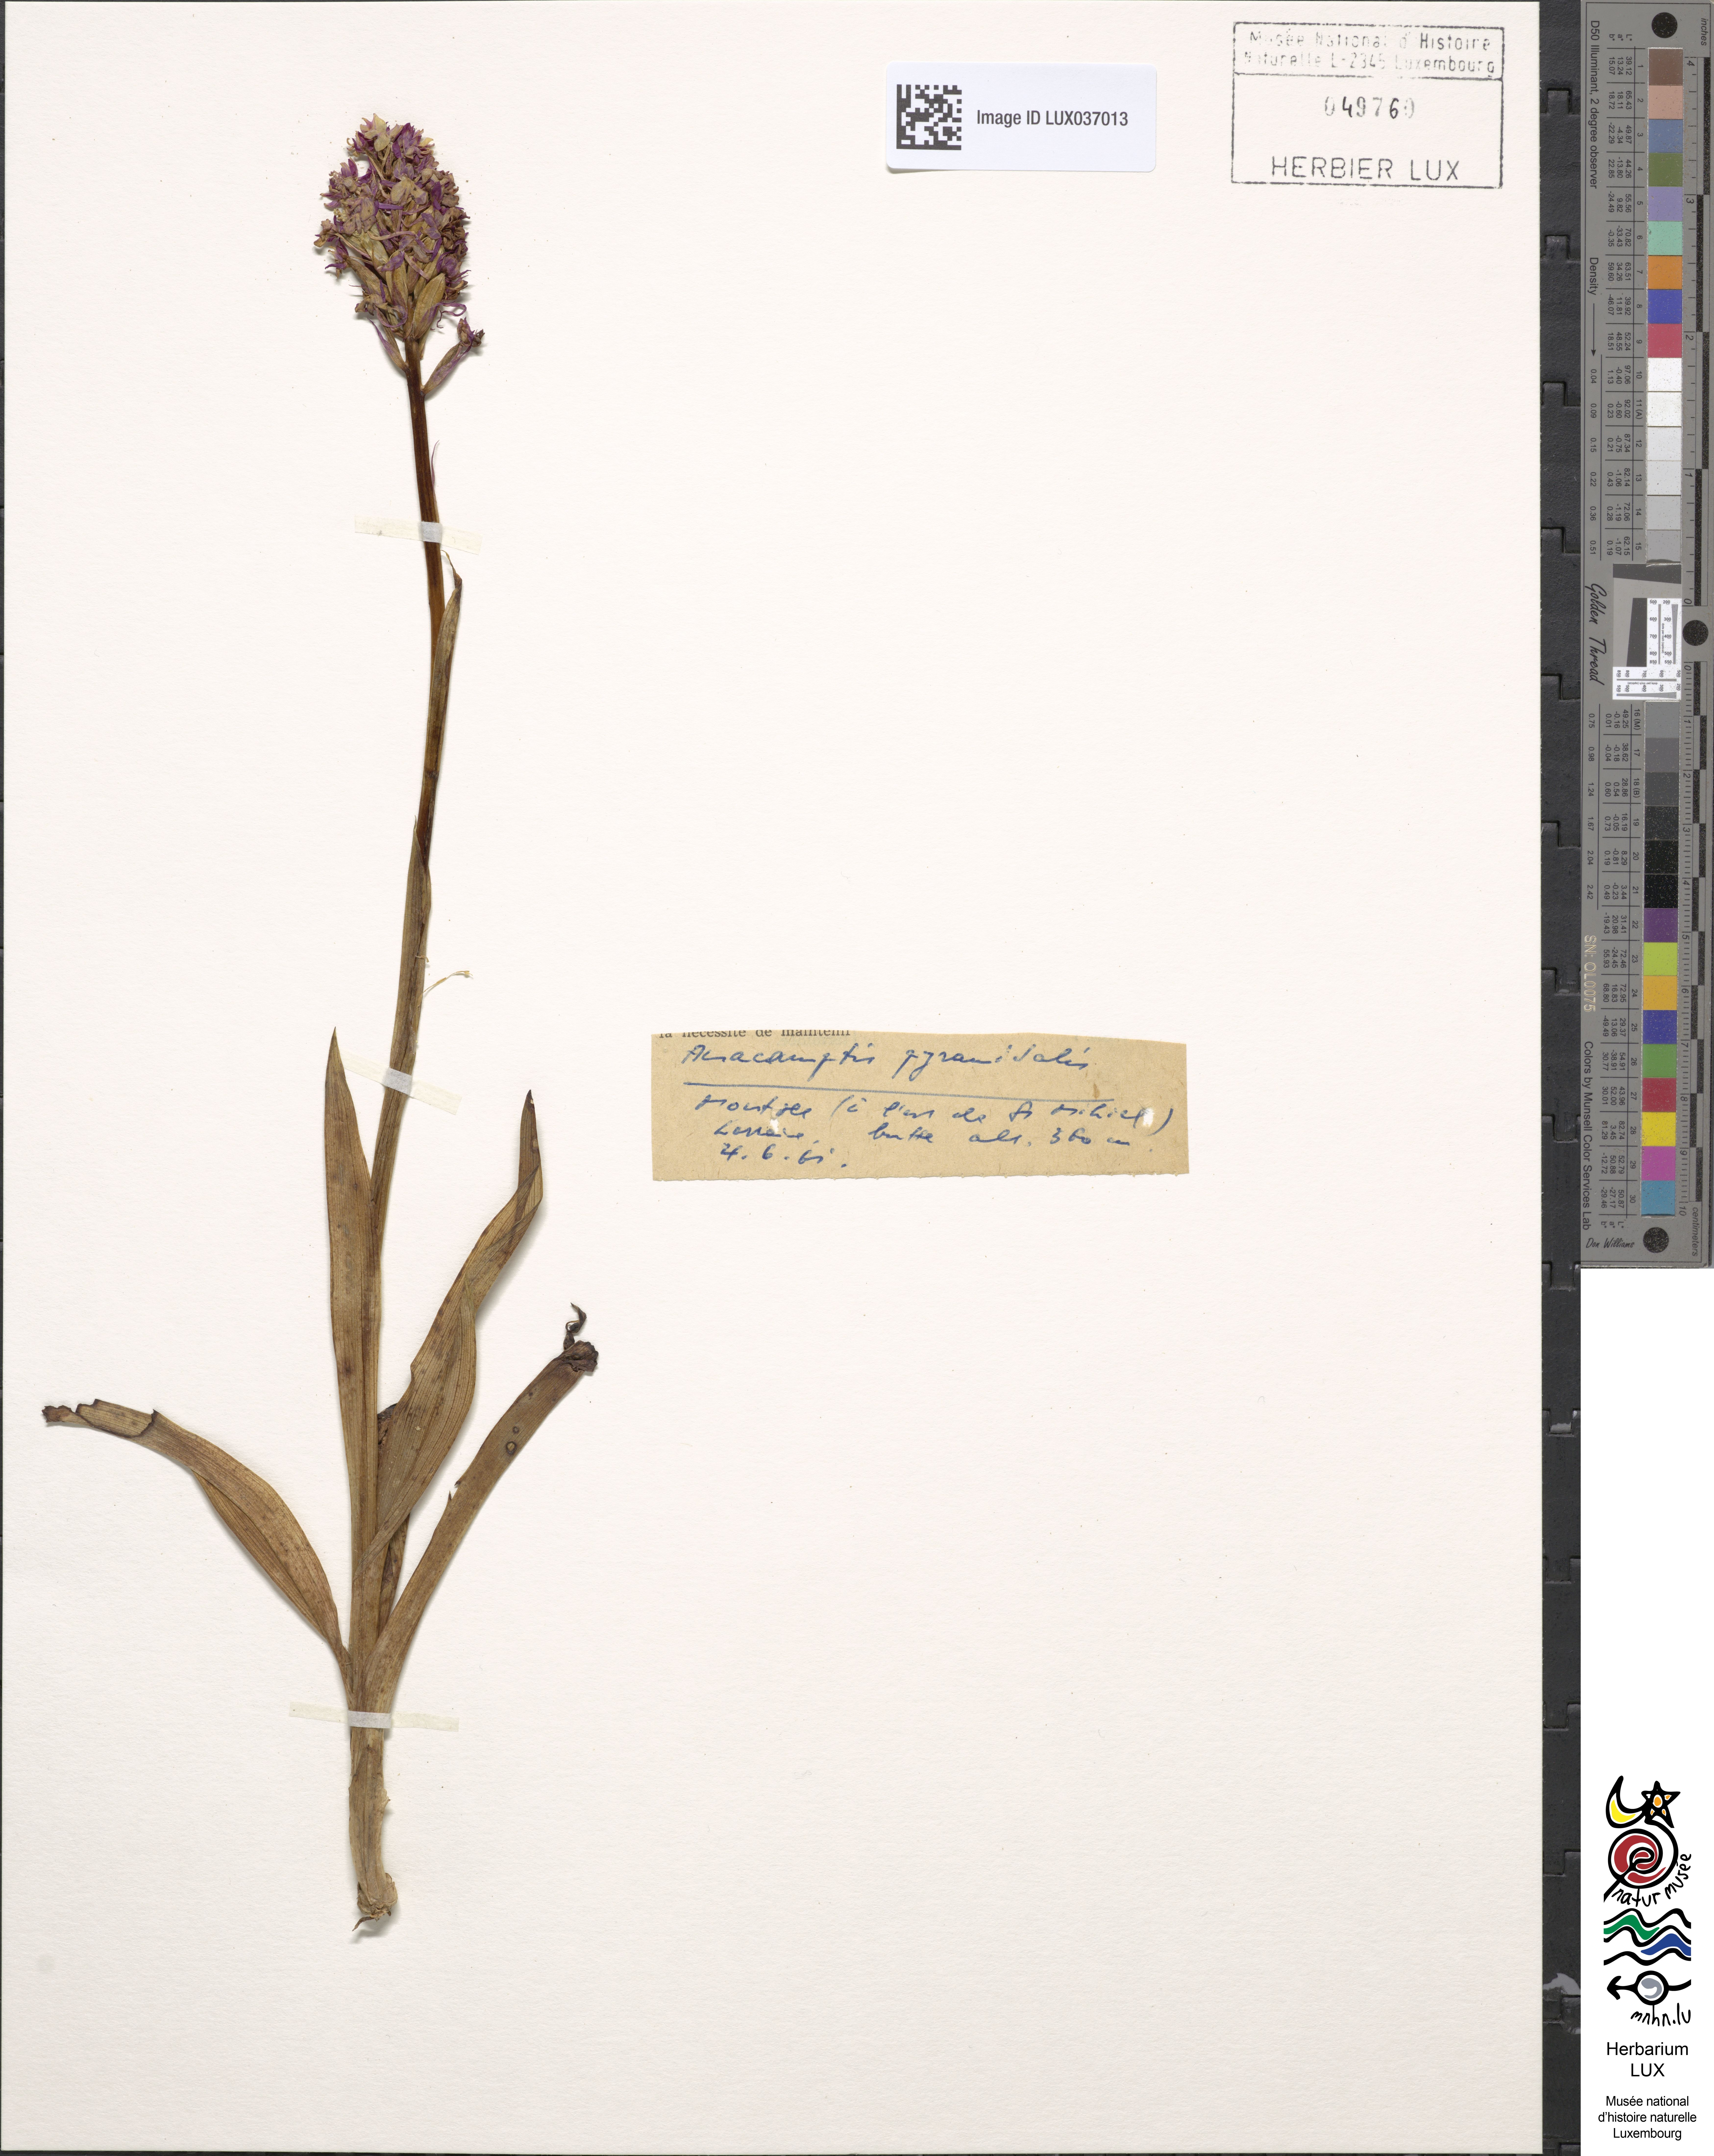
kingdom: Plantae
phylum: Tracheophyta
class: Liliopsida
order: Asparagales
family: Orchidaceae
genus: Anacamptis
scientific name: Anacamptis pyramidalis
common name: Pyramidal orchid
